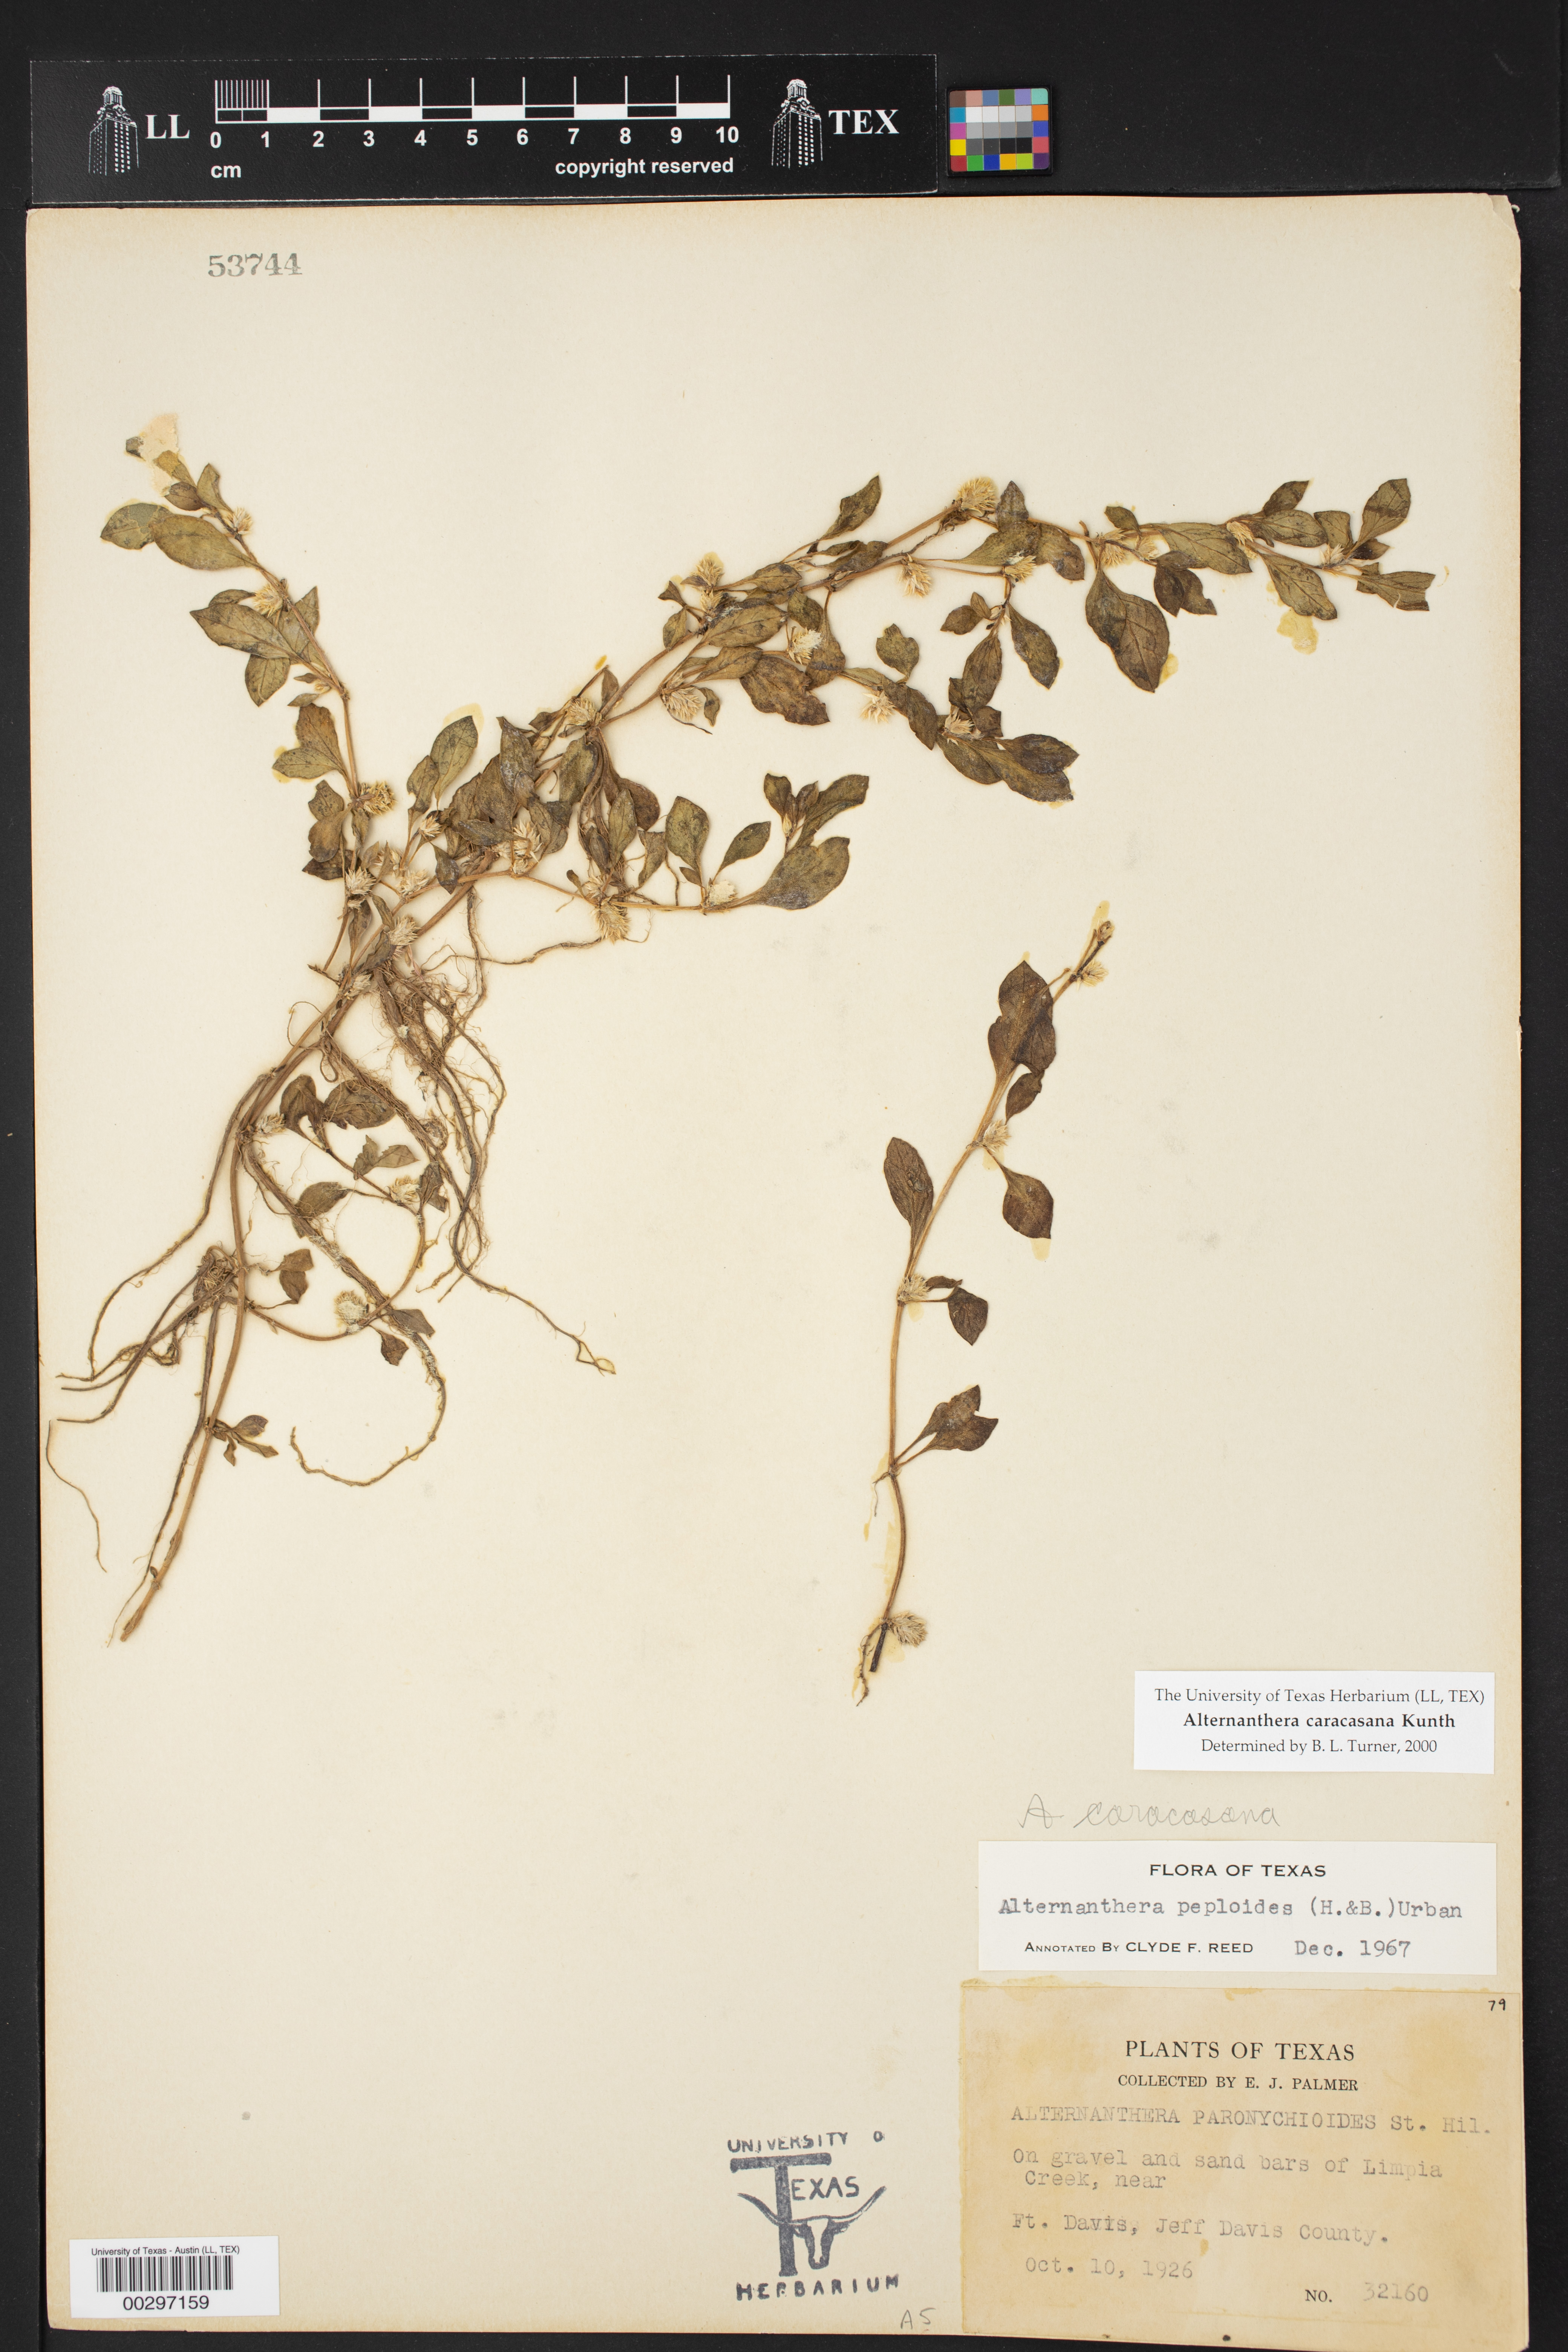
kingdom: Plantae
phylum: Tracheophyta
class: Magnoliopsida
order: Caryophyllales
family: Amaranthaceae
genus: Alternanthera
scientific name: Alternanthera caracasana
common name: Washerwoman
